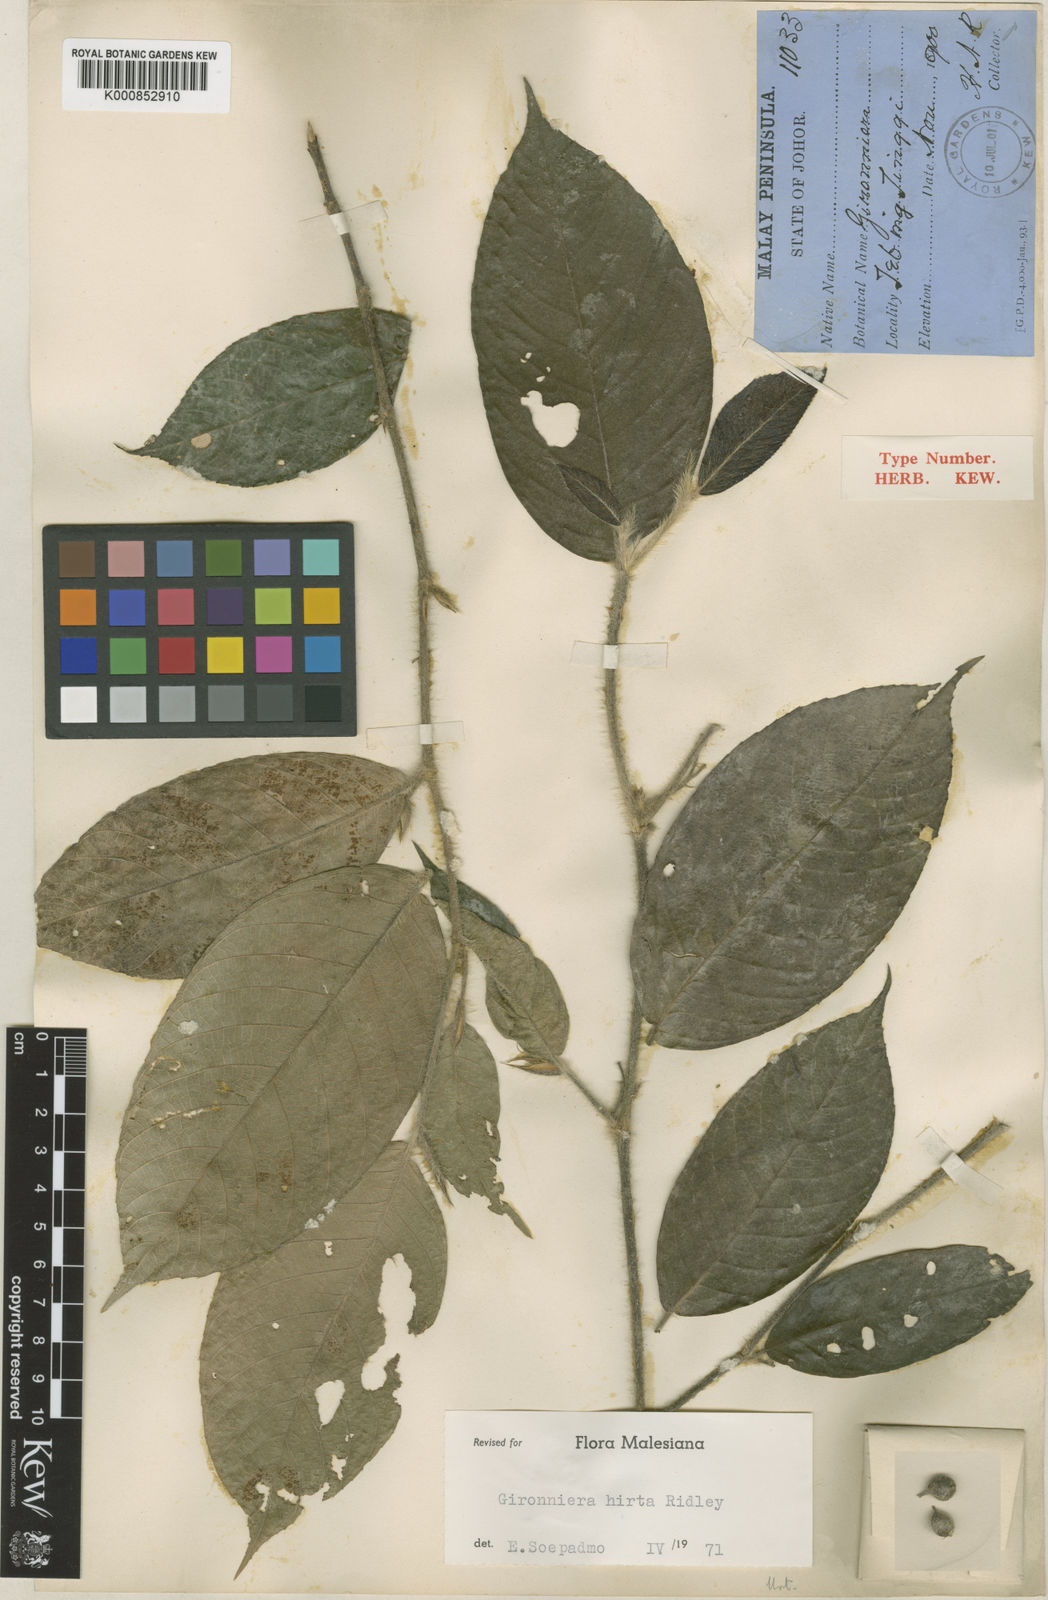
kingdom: Plantae
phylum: Tracheophyta
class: Magnoliopsida
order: Rosales
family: Cannabaceae
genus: Gironniera
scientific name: Gironniera hirta
